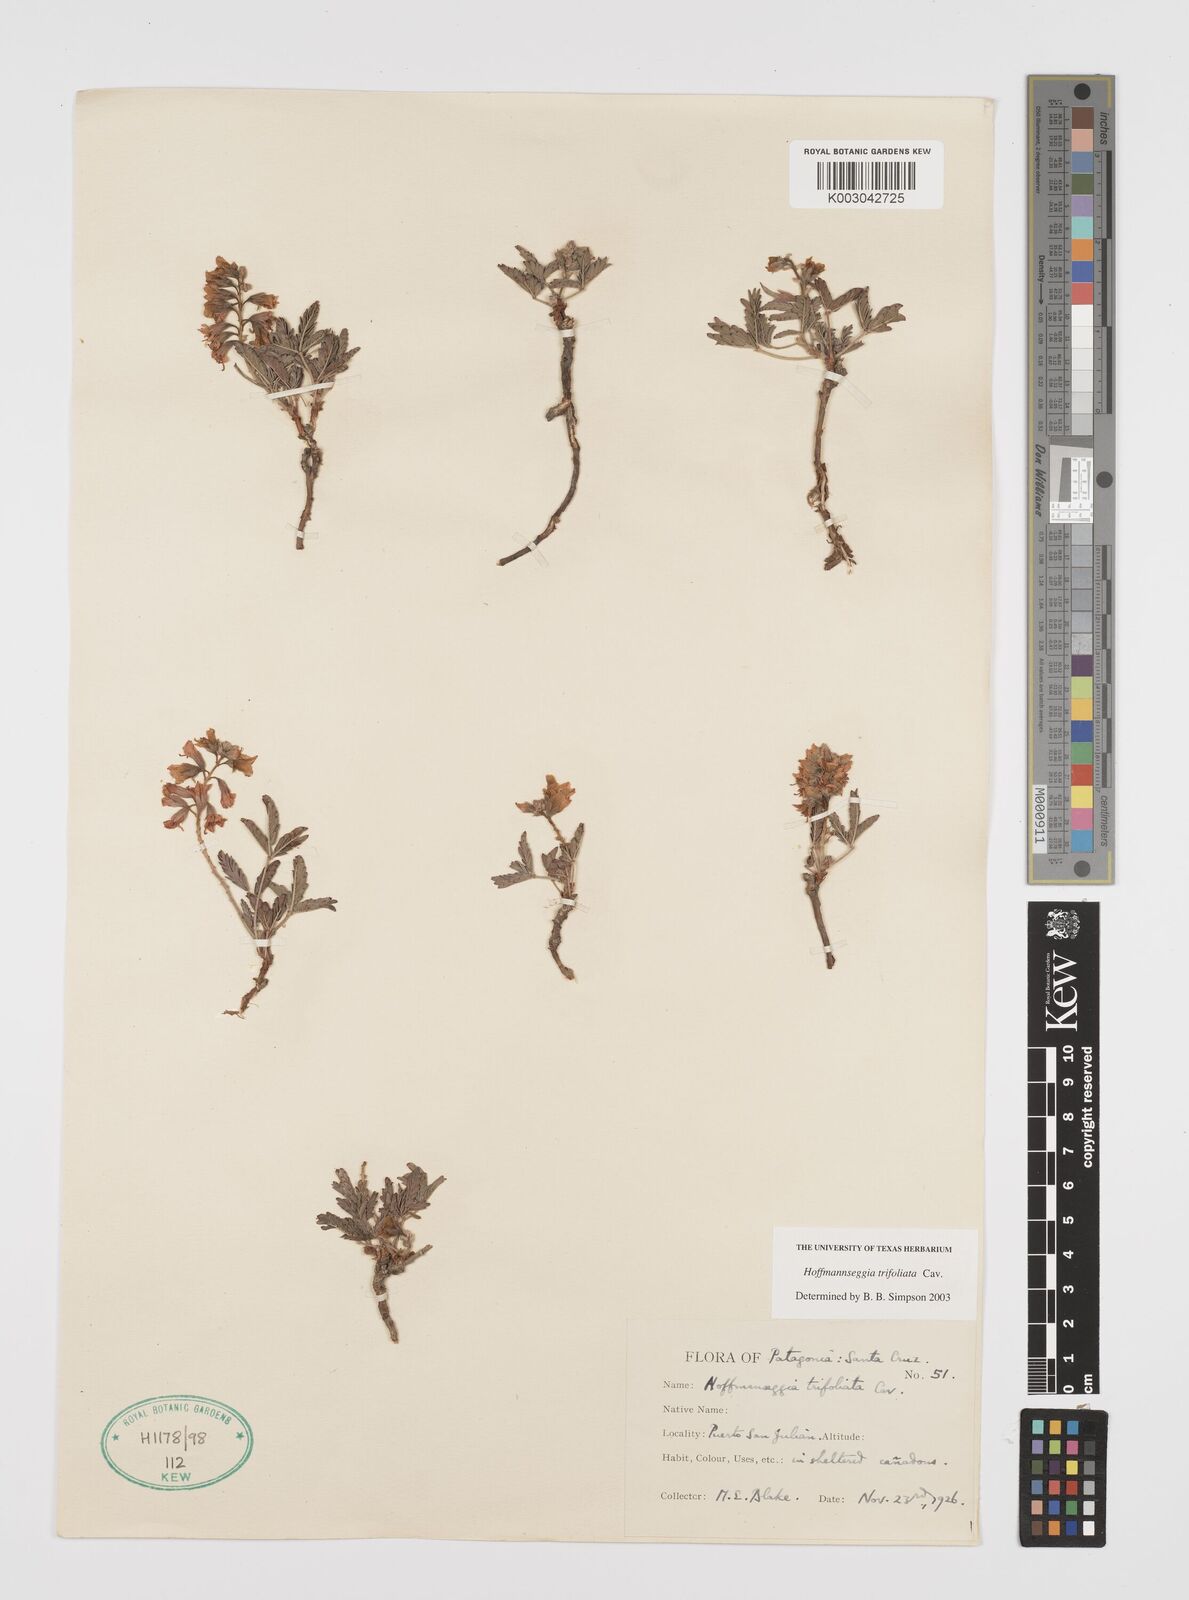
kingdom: Plantae
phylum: Tracheophyta
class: Magnoliopsida
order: Fabales
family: Fabaceae
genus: Hoffmannseggia
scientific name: Hoffmannseggia trifoliata
